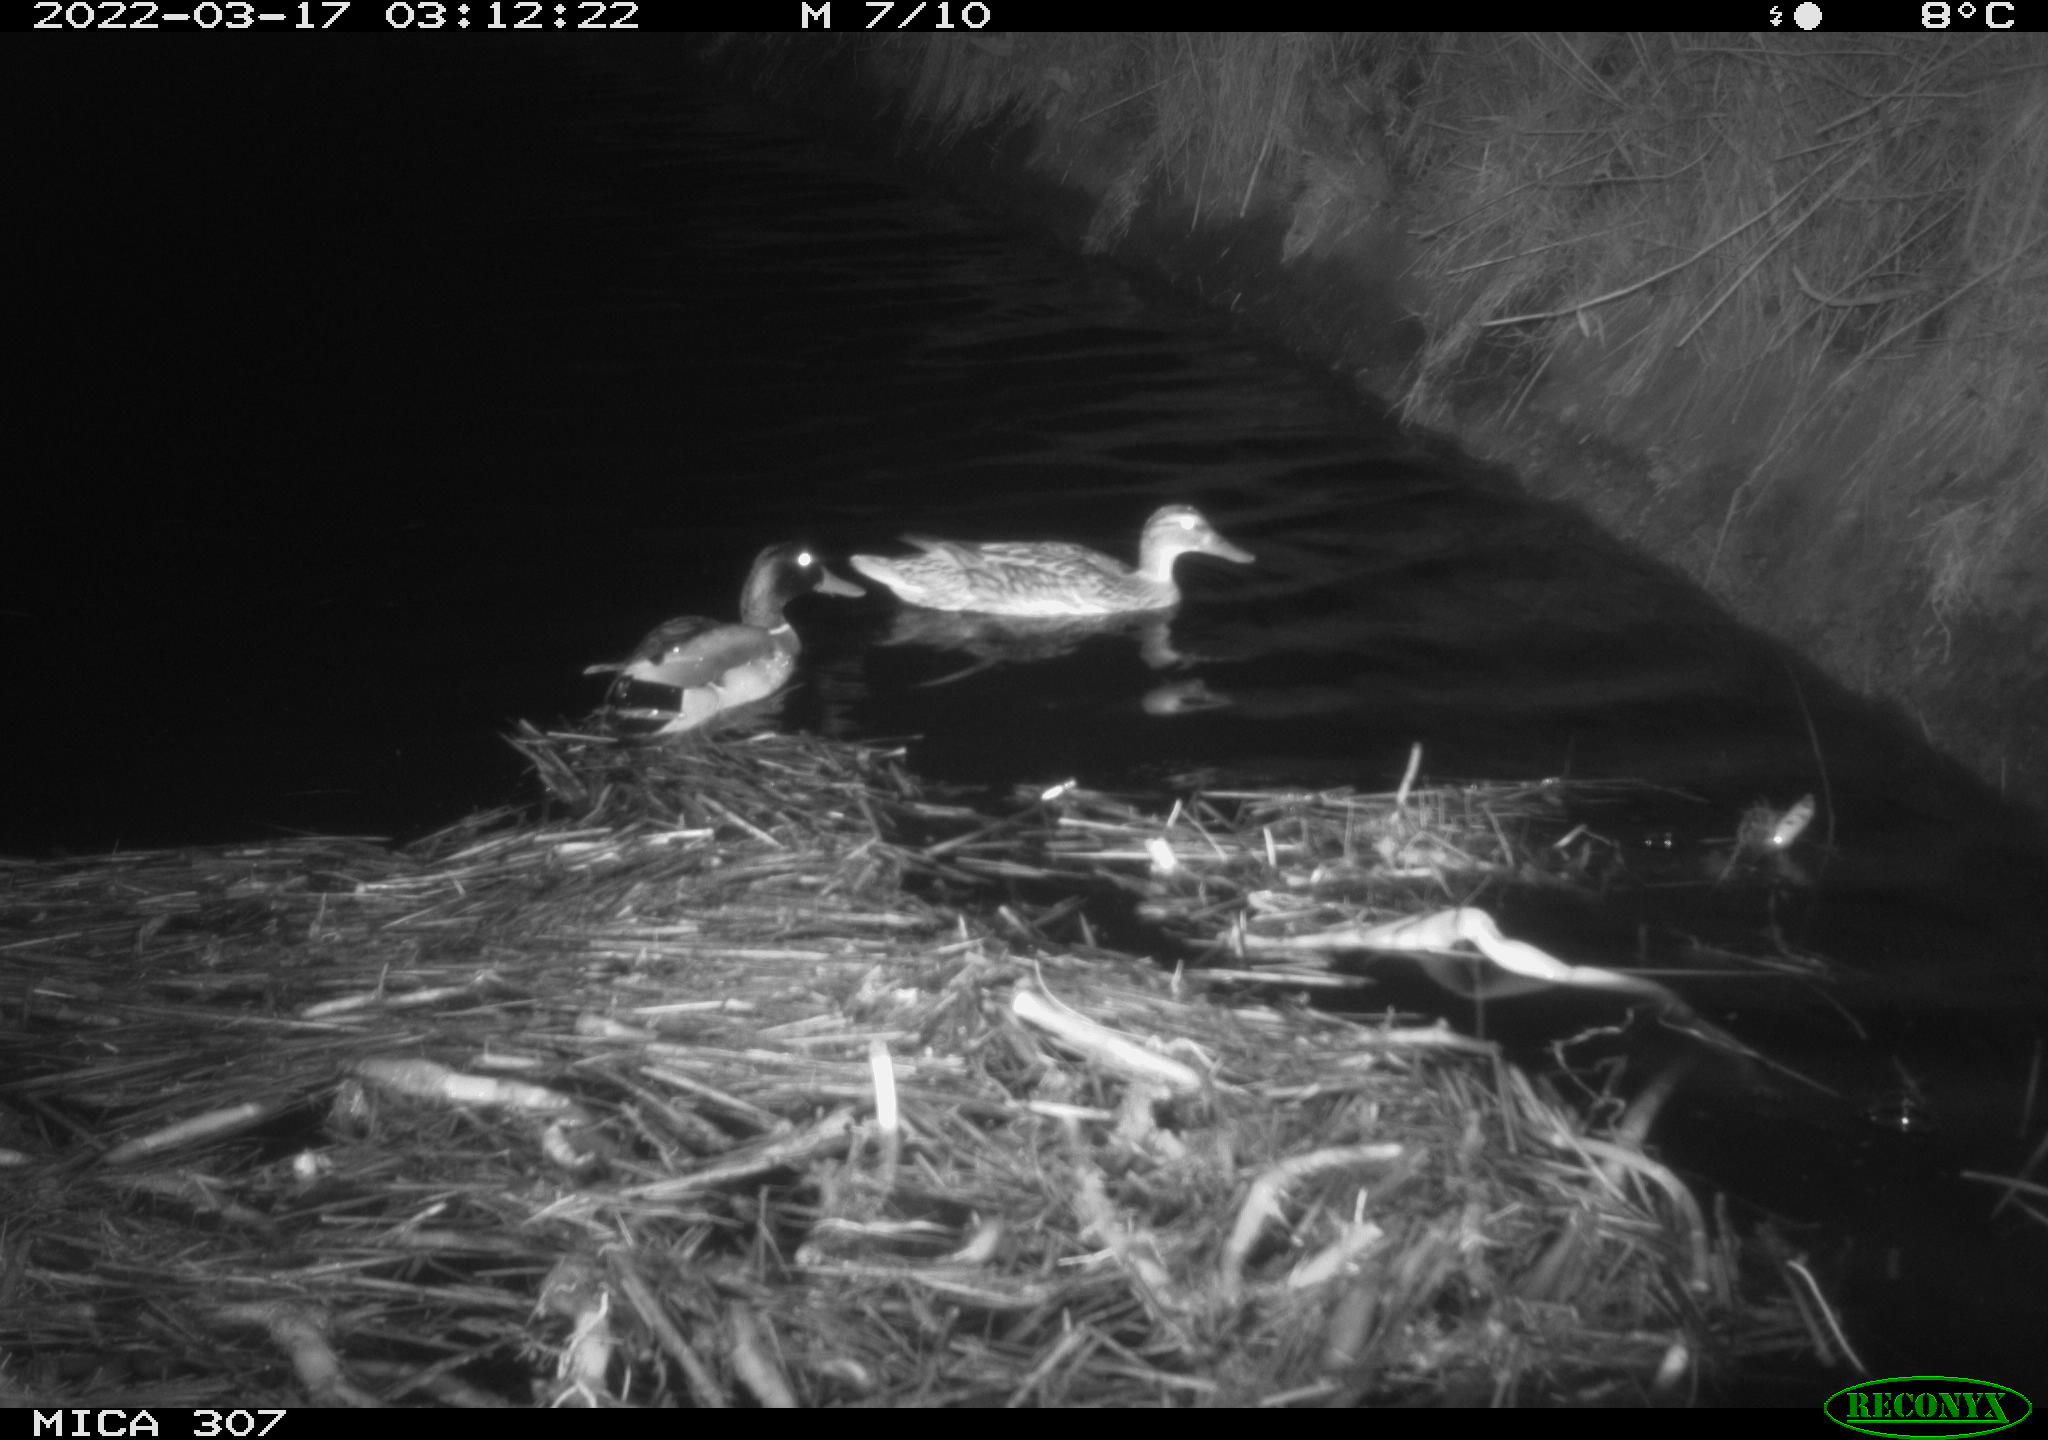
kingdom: Animalia
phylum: Chordata
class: Aves
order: Anseriformes
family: Anatidae
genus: Anas
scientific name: Anas platyrhynchos
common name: Mallard
